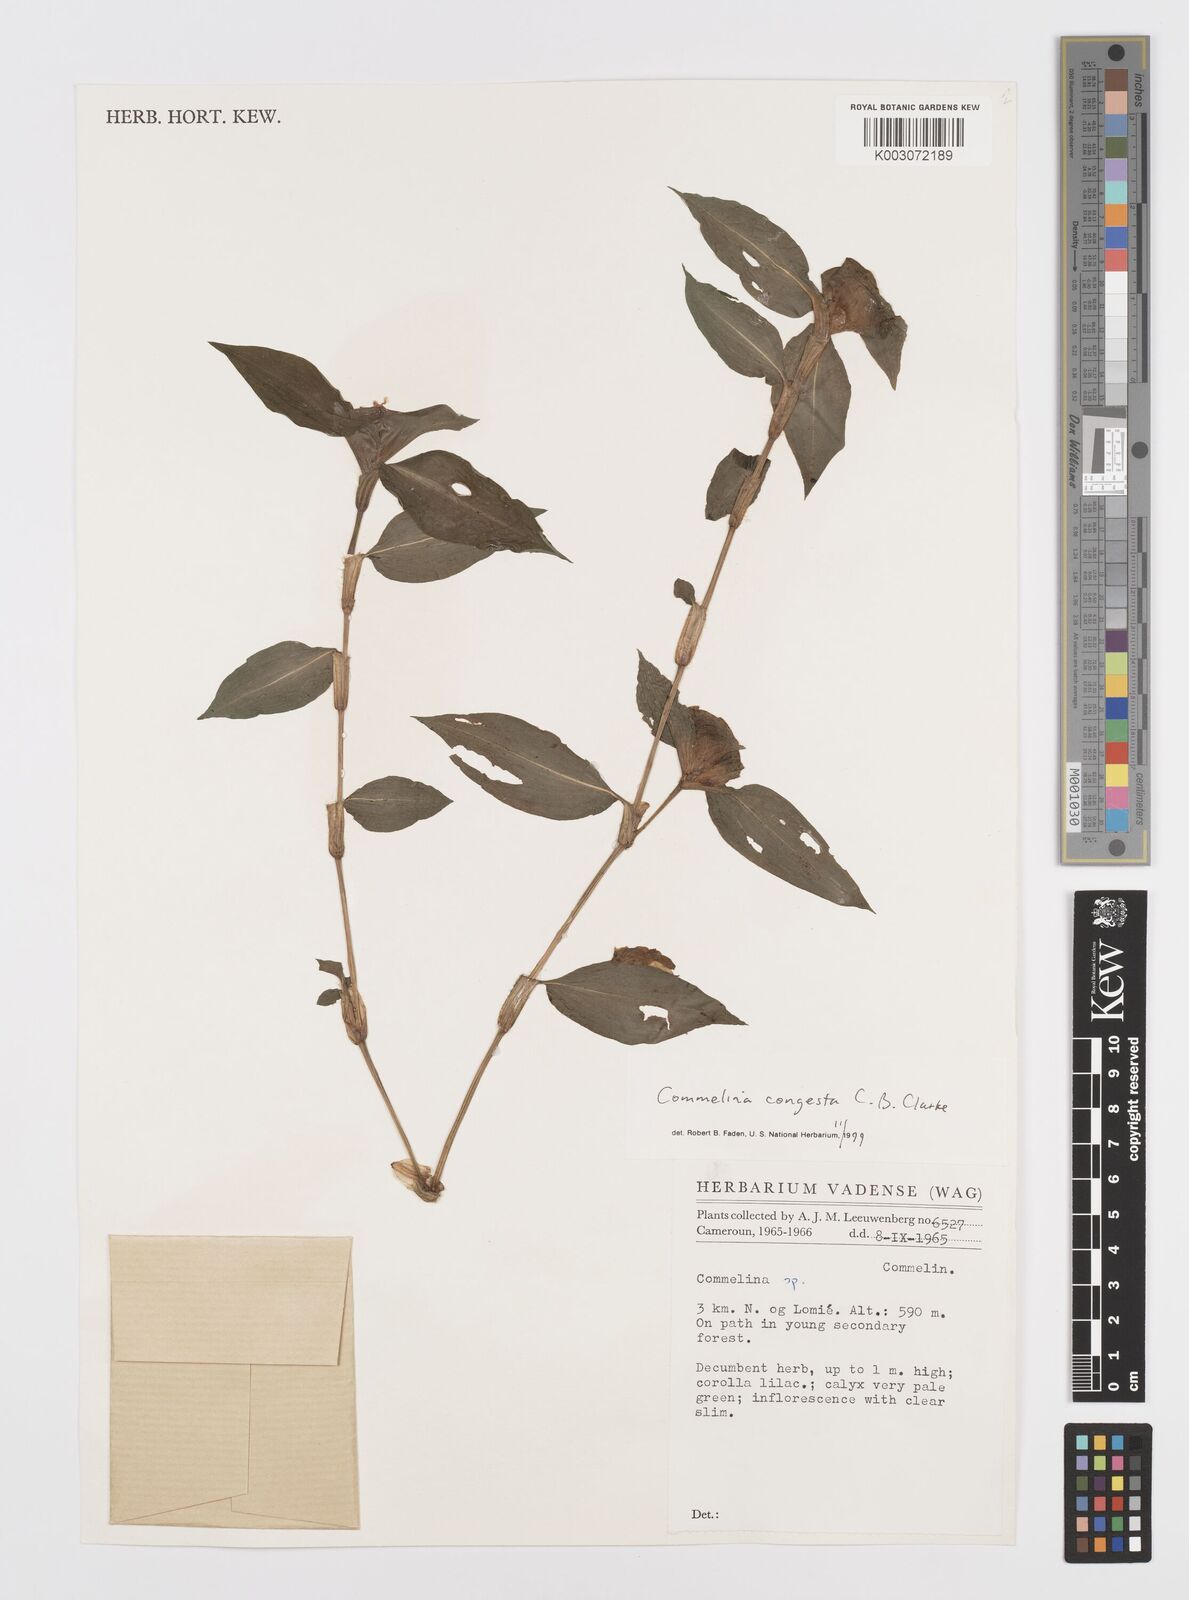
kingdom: Plantae
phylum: Tracheophyta
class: Liliopsida
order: Commelinales
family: Commelinaceae
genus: Commelina
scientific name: Commelina congesta
